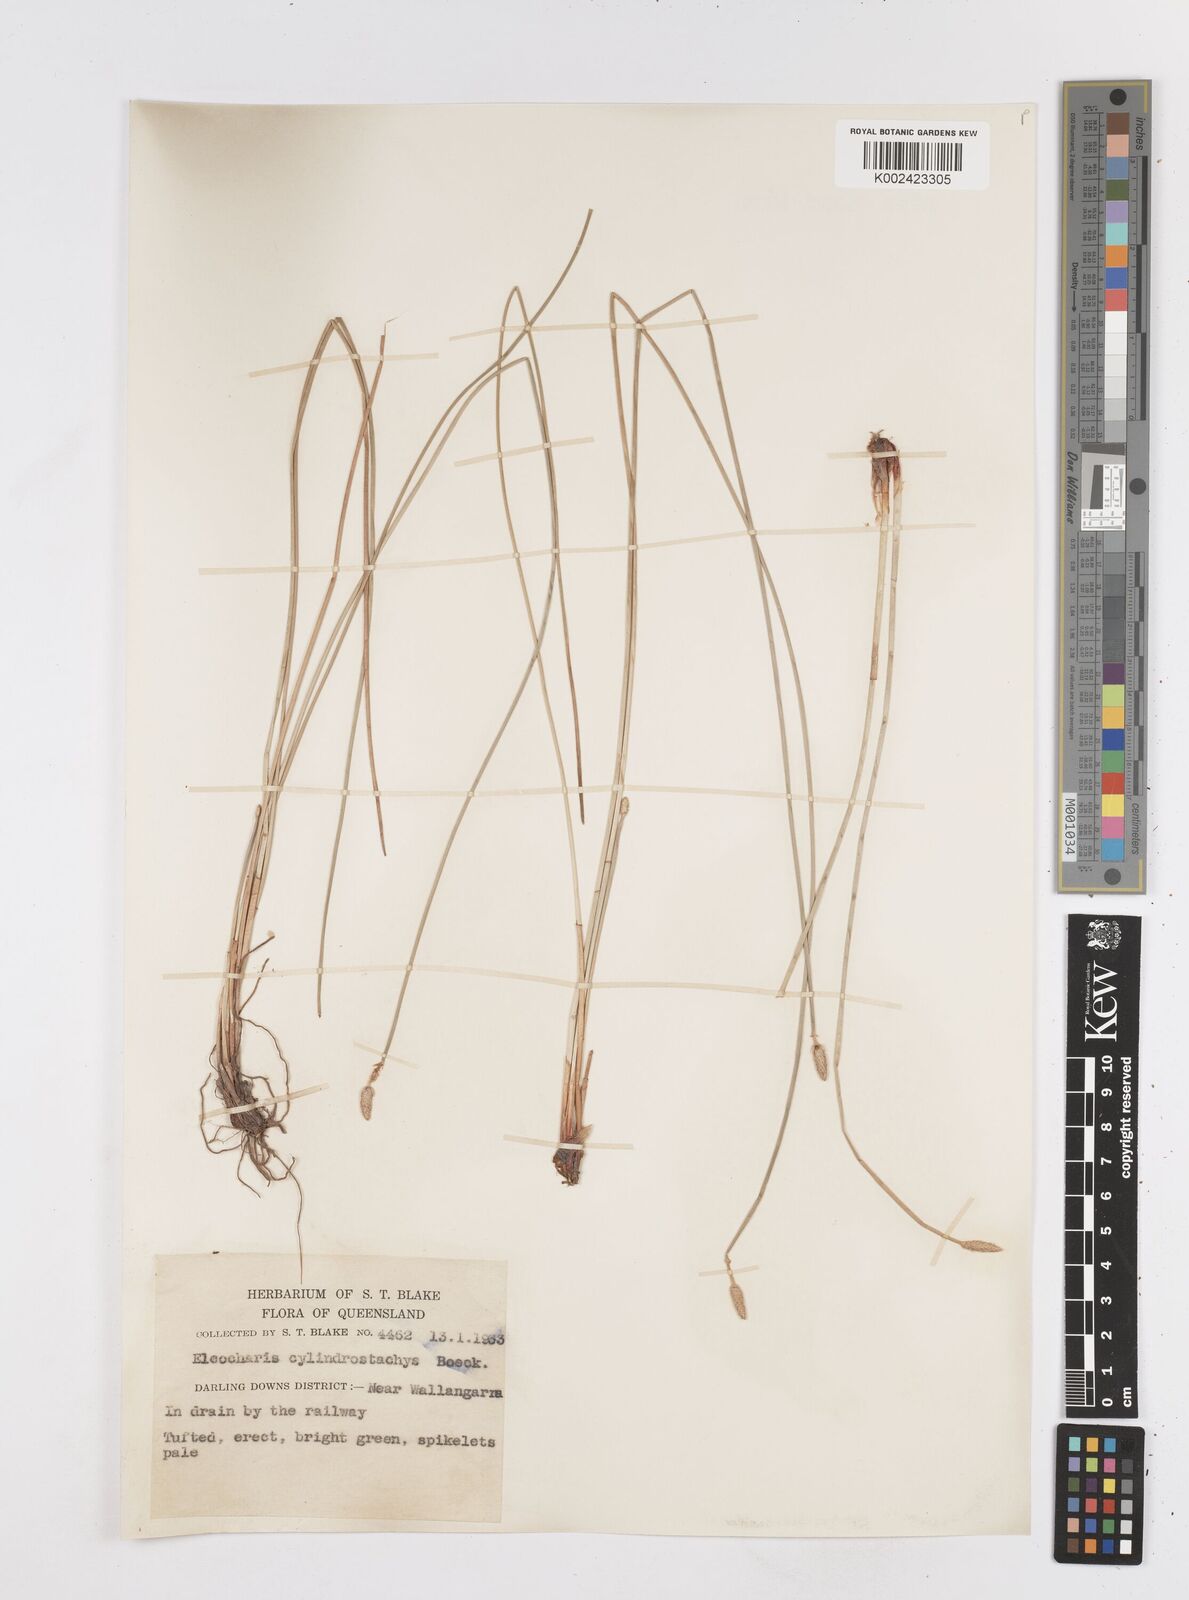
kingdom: Plantae
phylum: Tracheophyta
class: Liliopsida
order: Poales
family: Cyperaceae
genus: Eleocharis
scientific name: Eleocharis cylindrostachys
